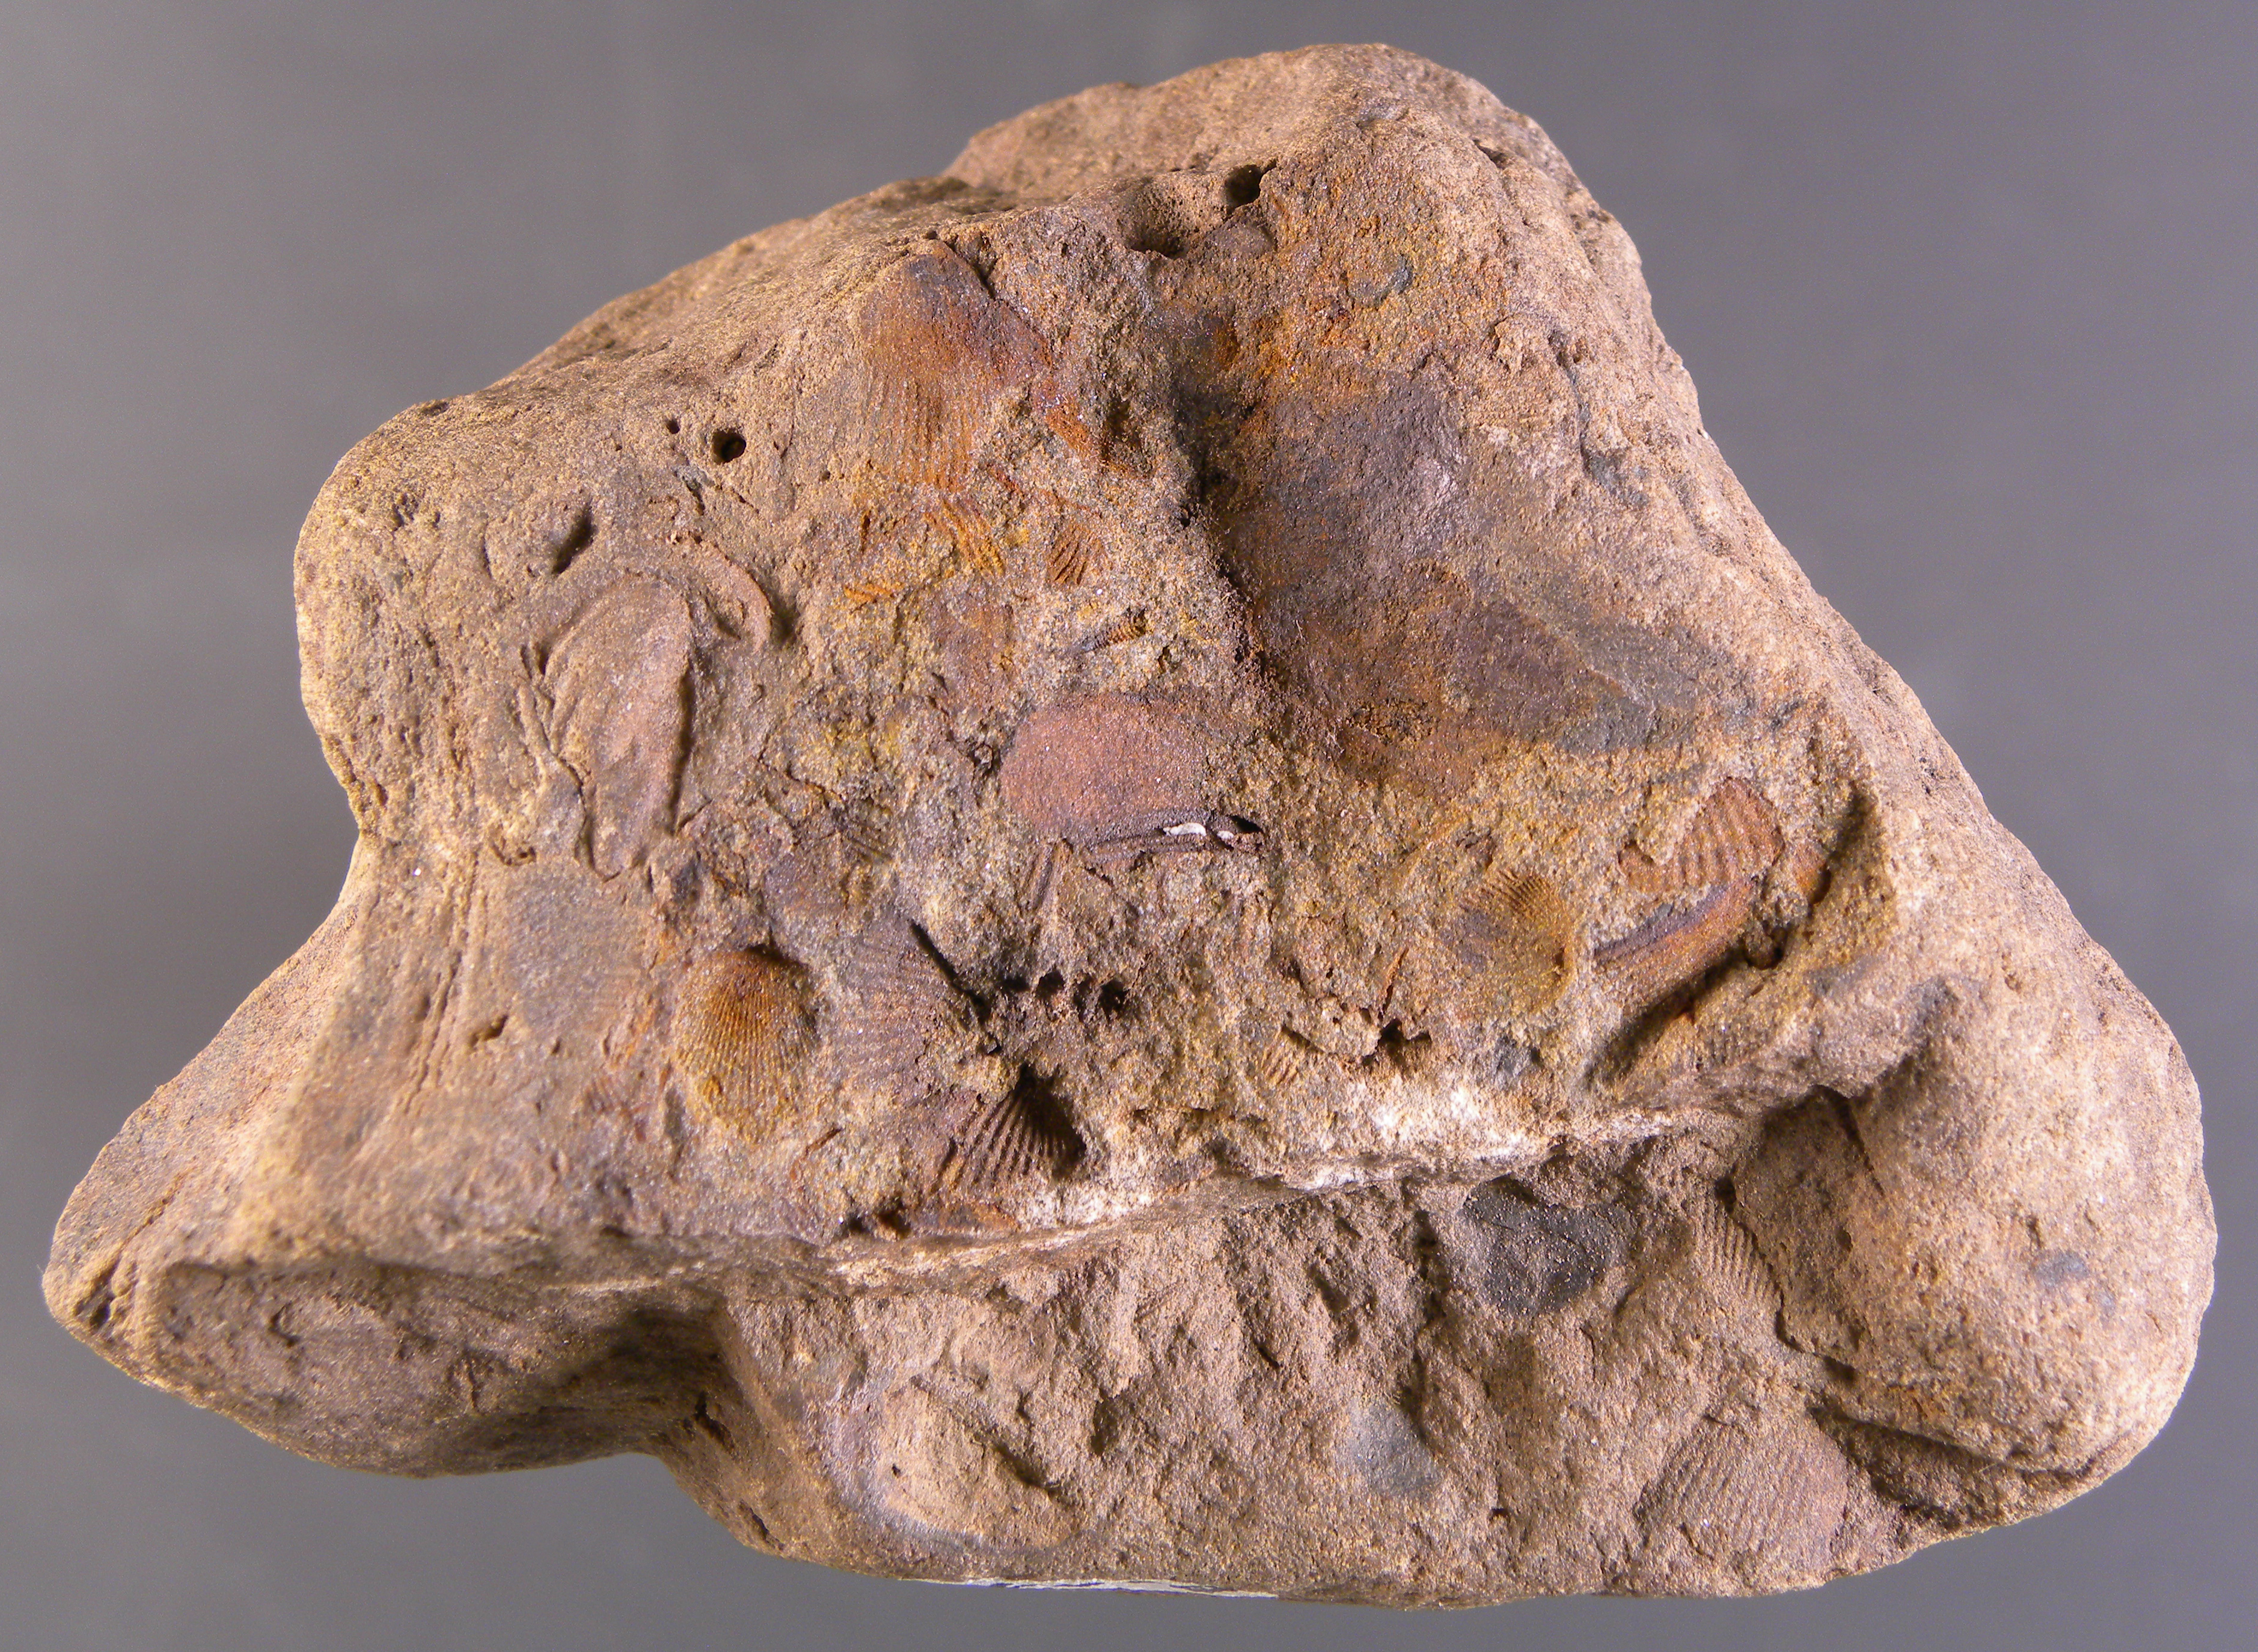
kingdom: Animalia
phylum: Mollusca
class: Bivalvia
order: Ostreida
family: Pterineidae
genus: Leptodesma
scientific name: Leptodesma
